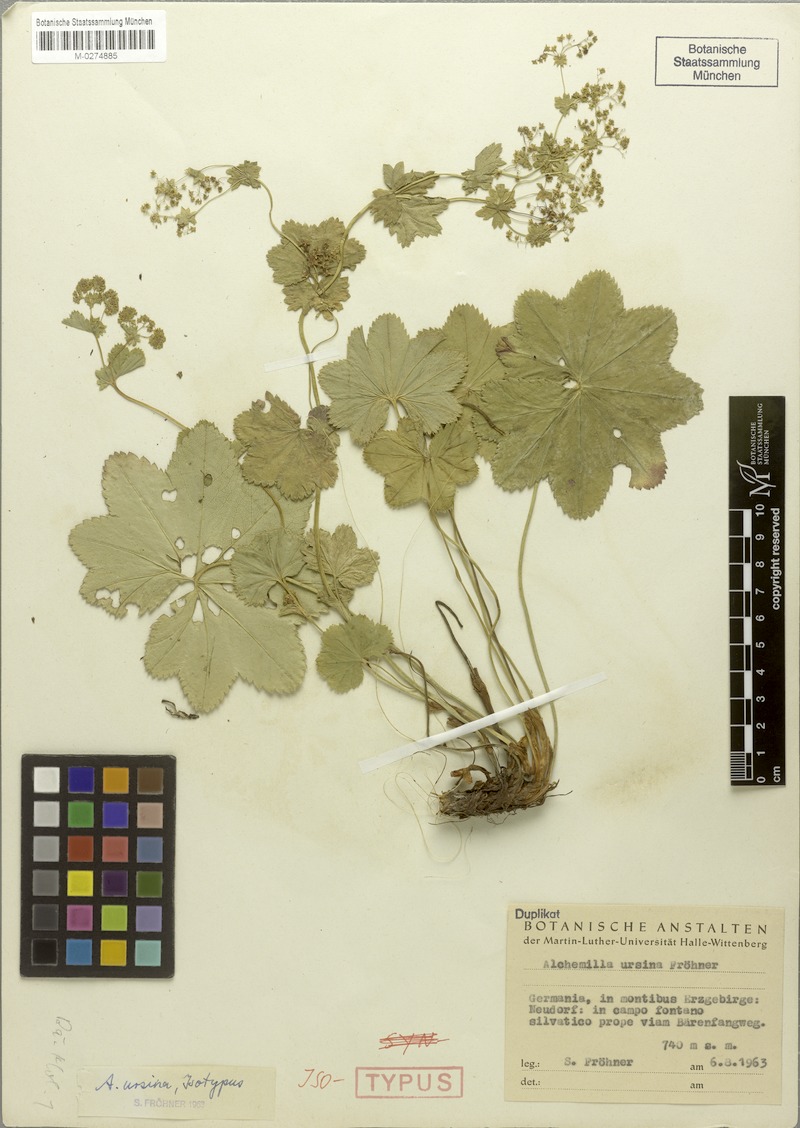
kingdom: Plantae
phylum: Tracheophyta
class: Magnoliopsida
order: Rosales
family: Rosaceae
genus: Alchemilla
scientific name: Alchemilla effusa
